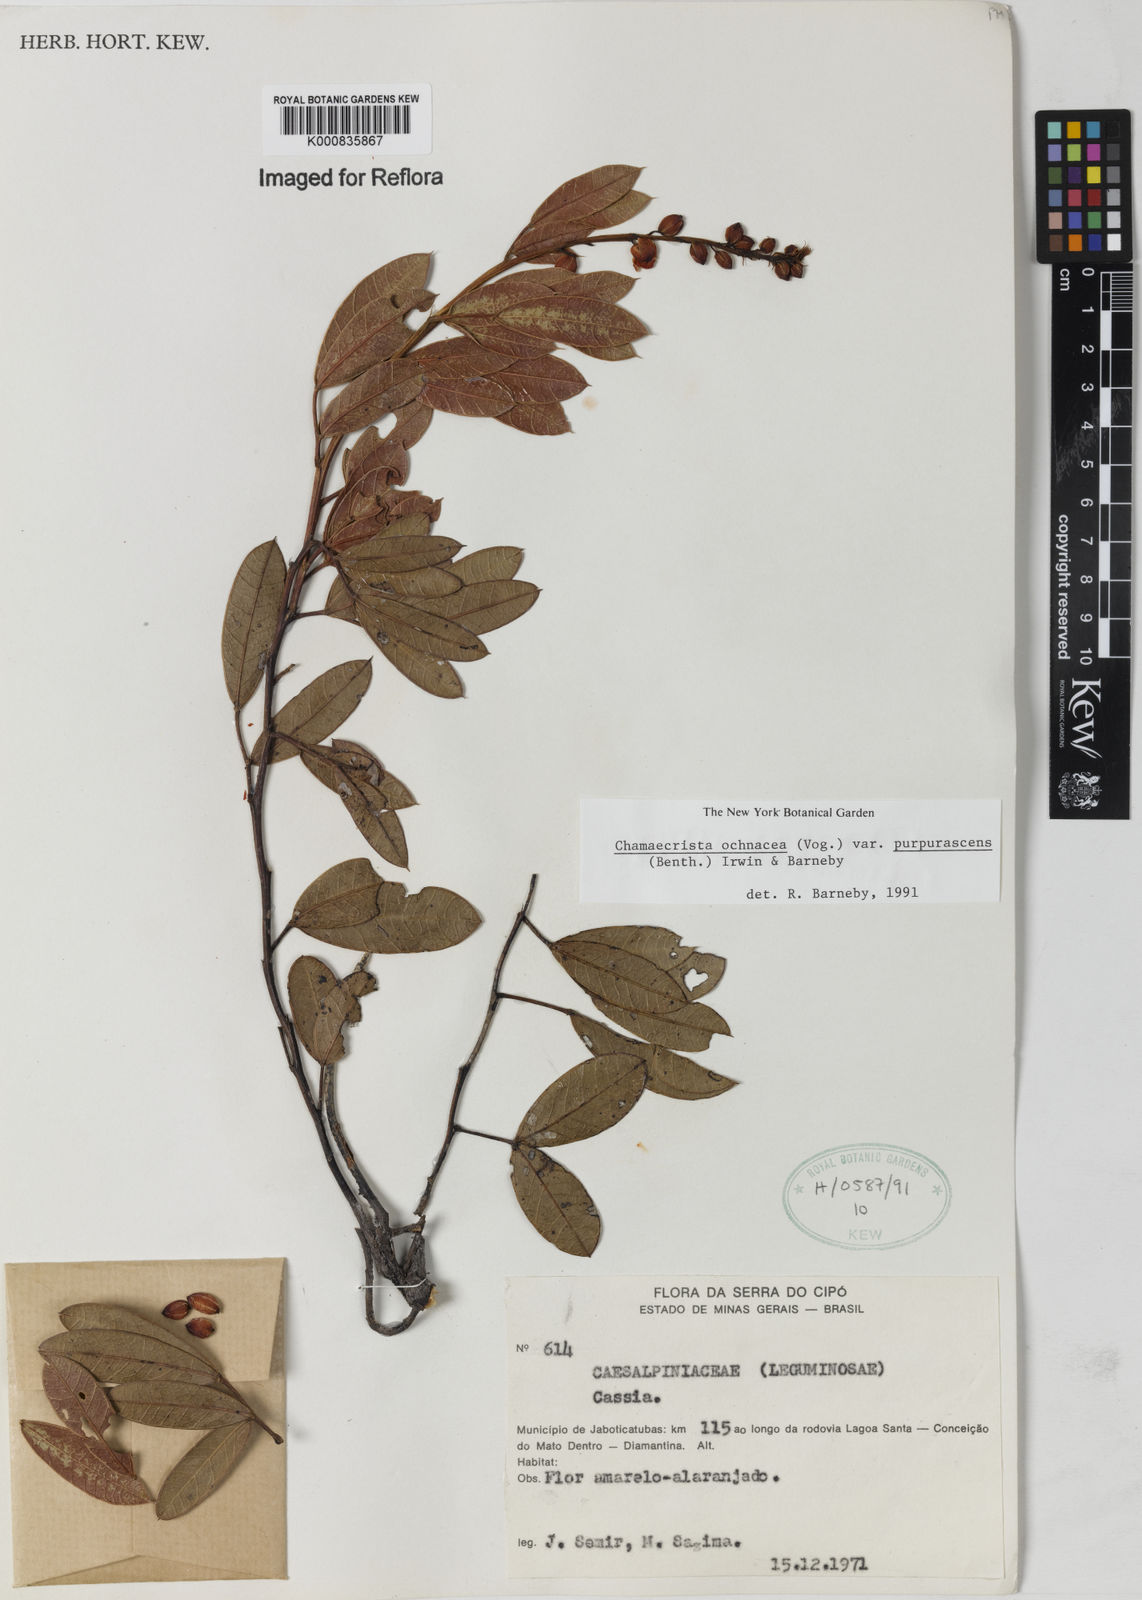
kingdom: Plantae
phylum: Tracheophyta
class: Magnoliopsida
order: Fabales
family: Fabaceae
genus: Chamaecrista
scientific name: Chamaecrista ochnacea
